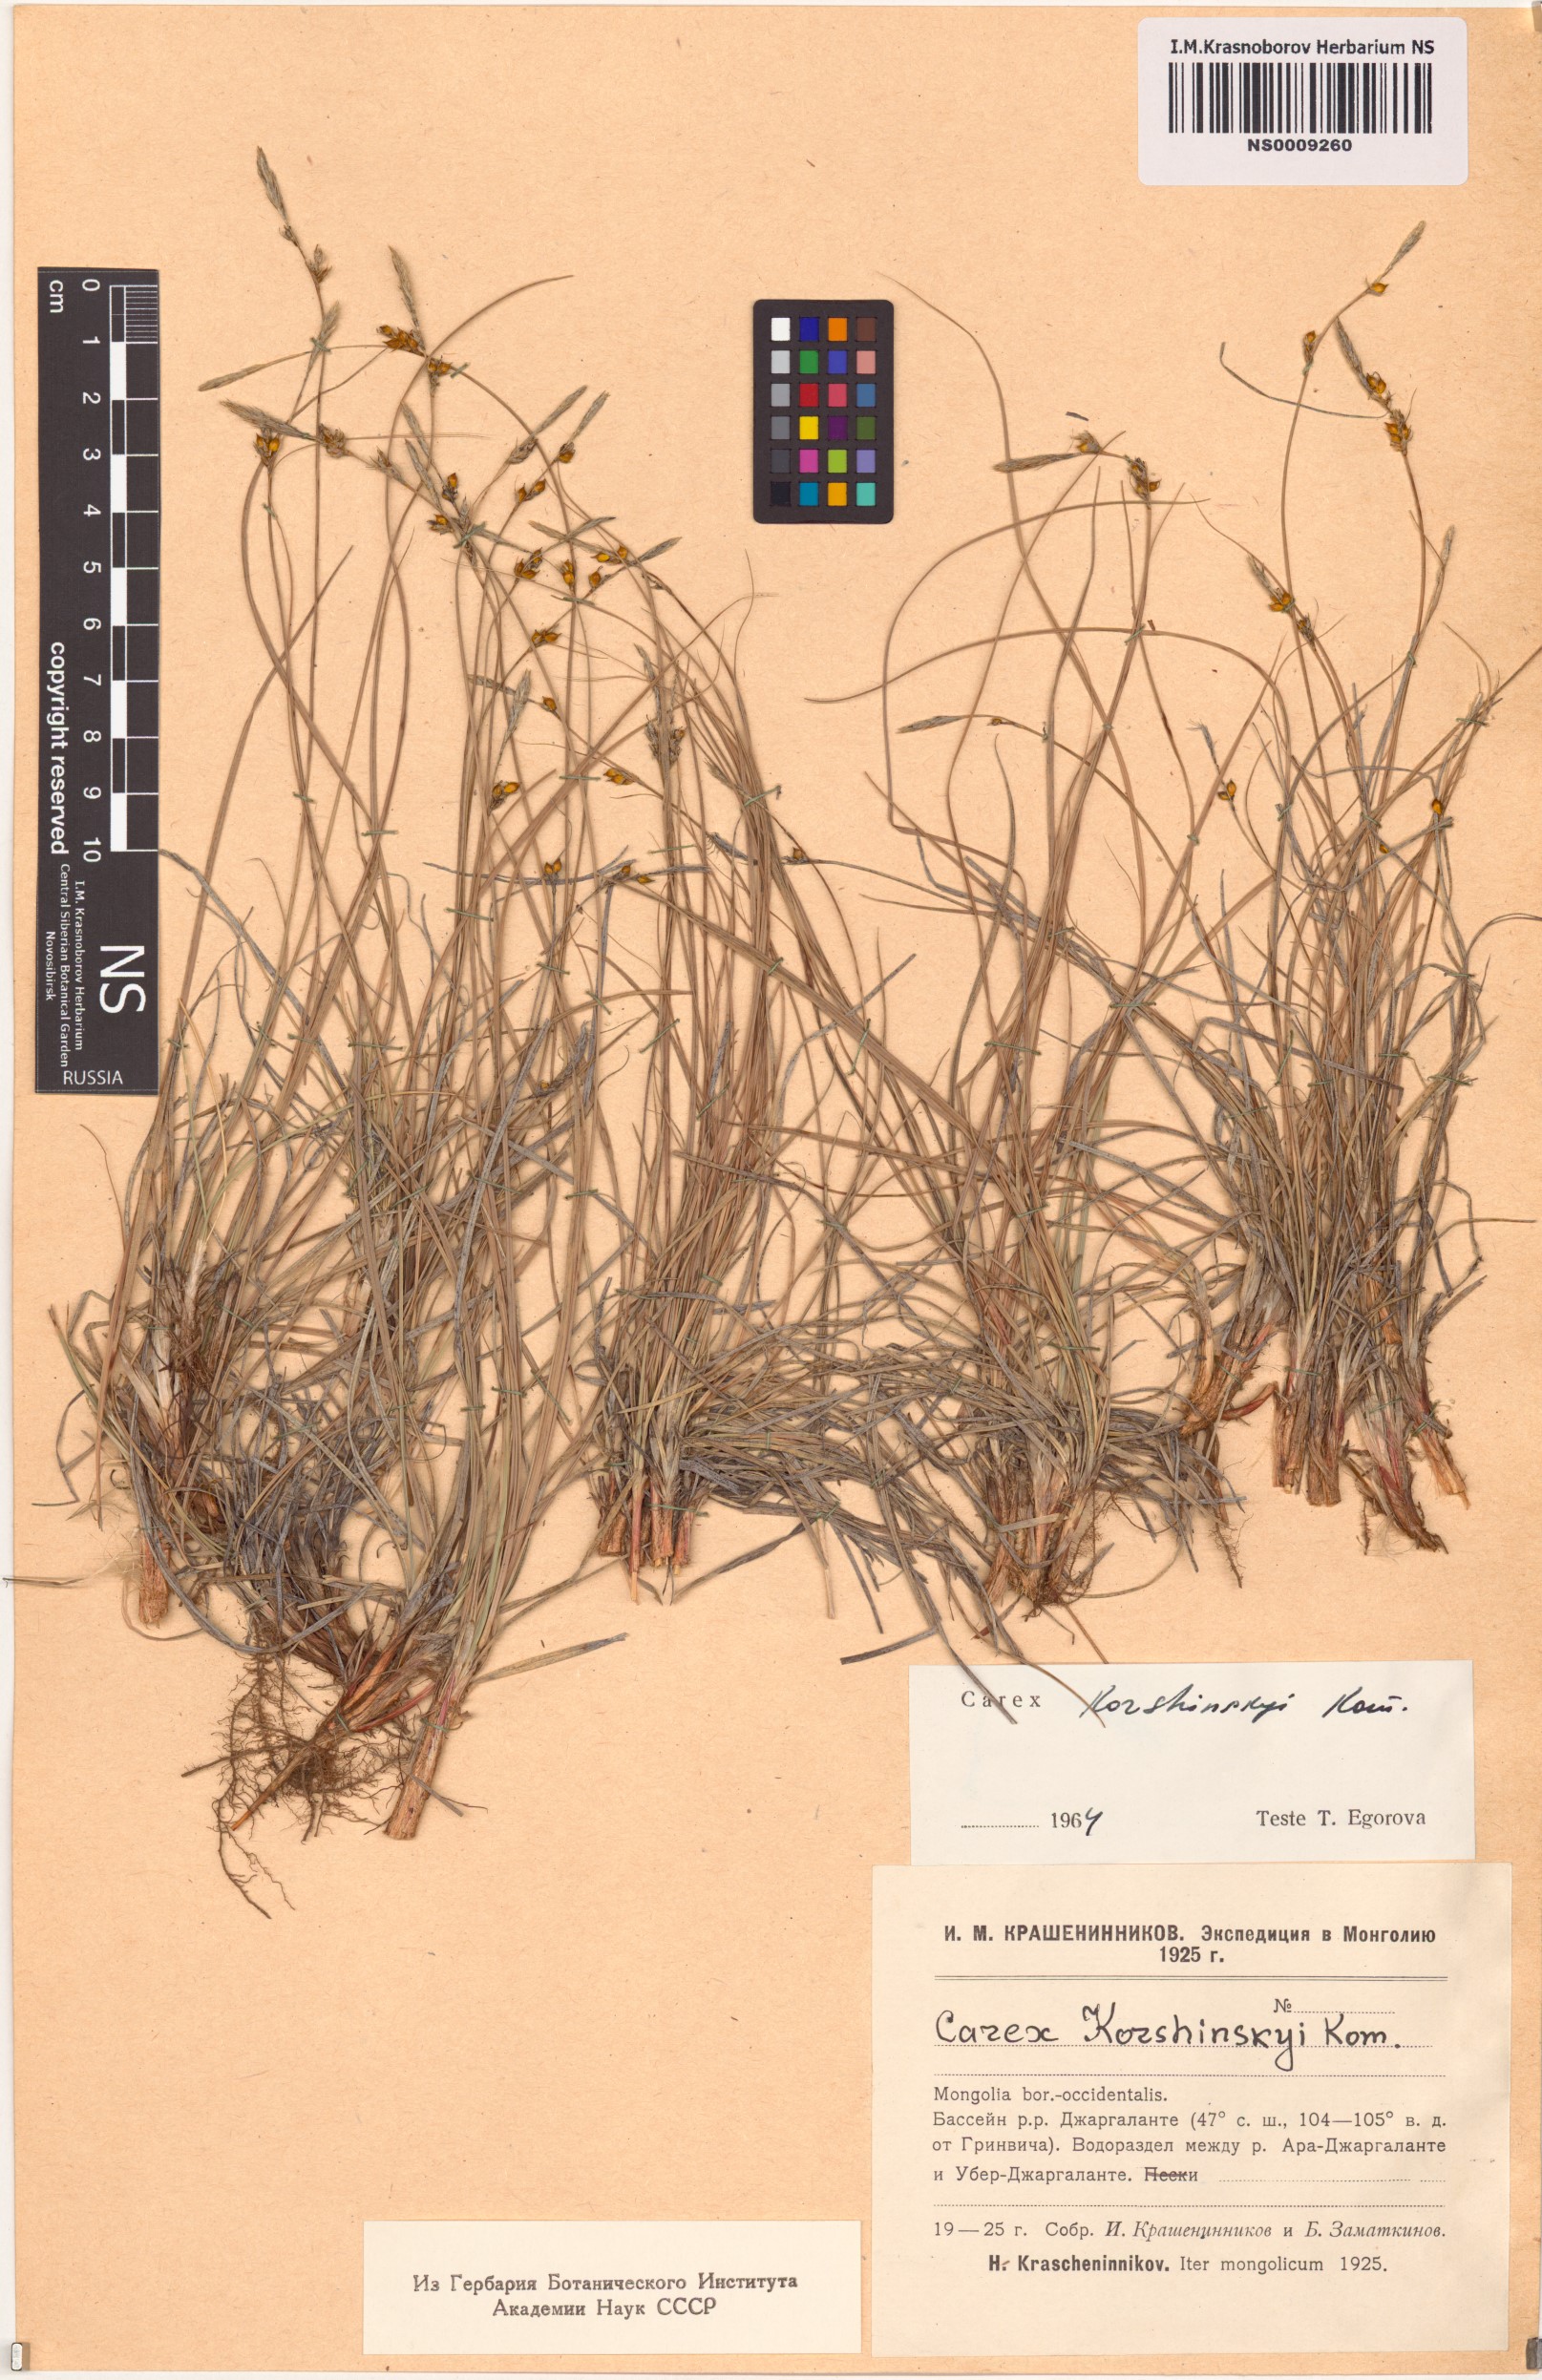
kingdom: Plantae
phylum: Tracheophyta
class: Liliopsida
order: Poales
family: Cyperaceae
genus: Carex
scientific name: Carex korshinskyi
